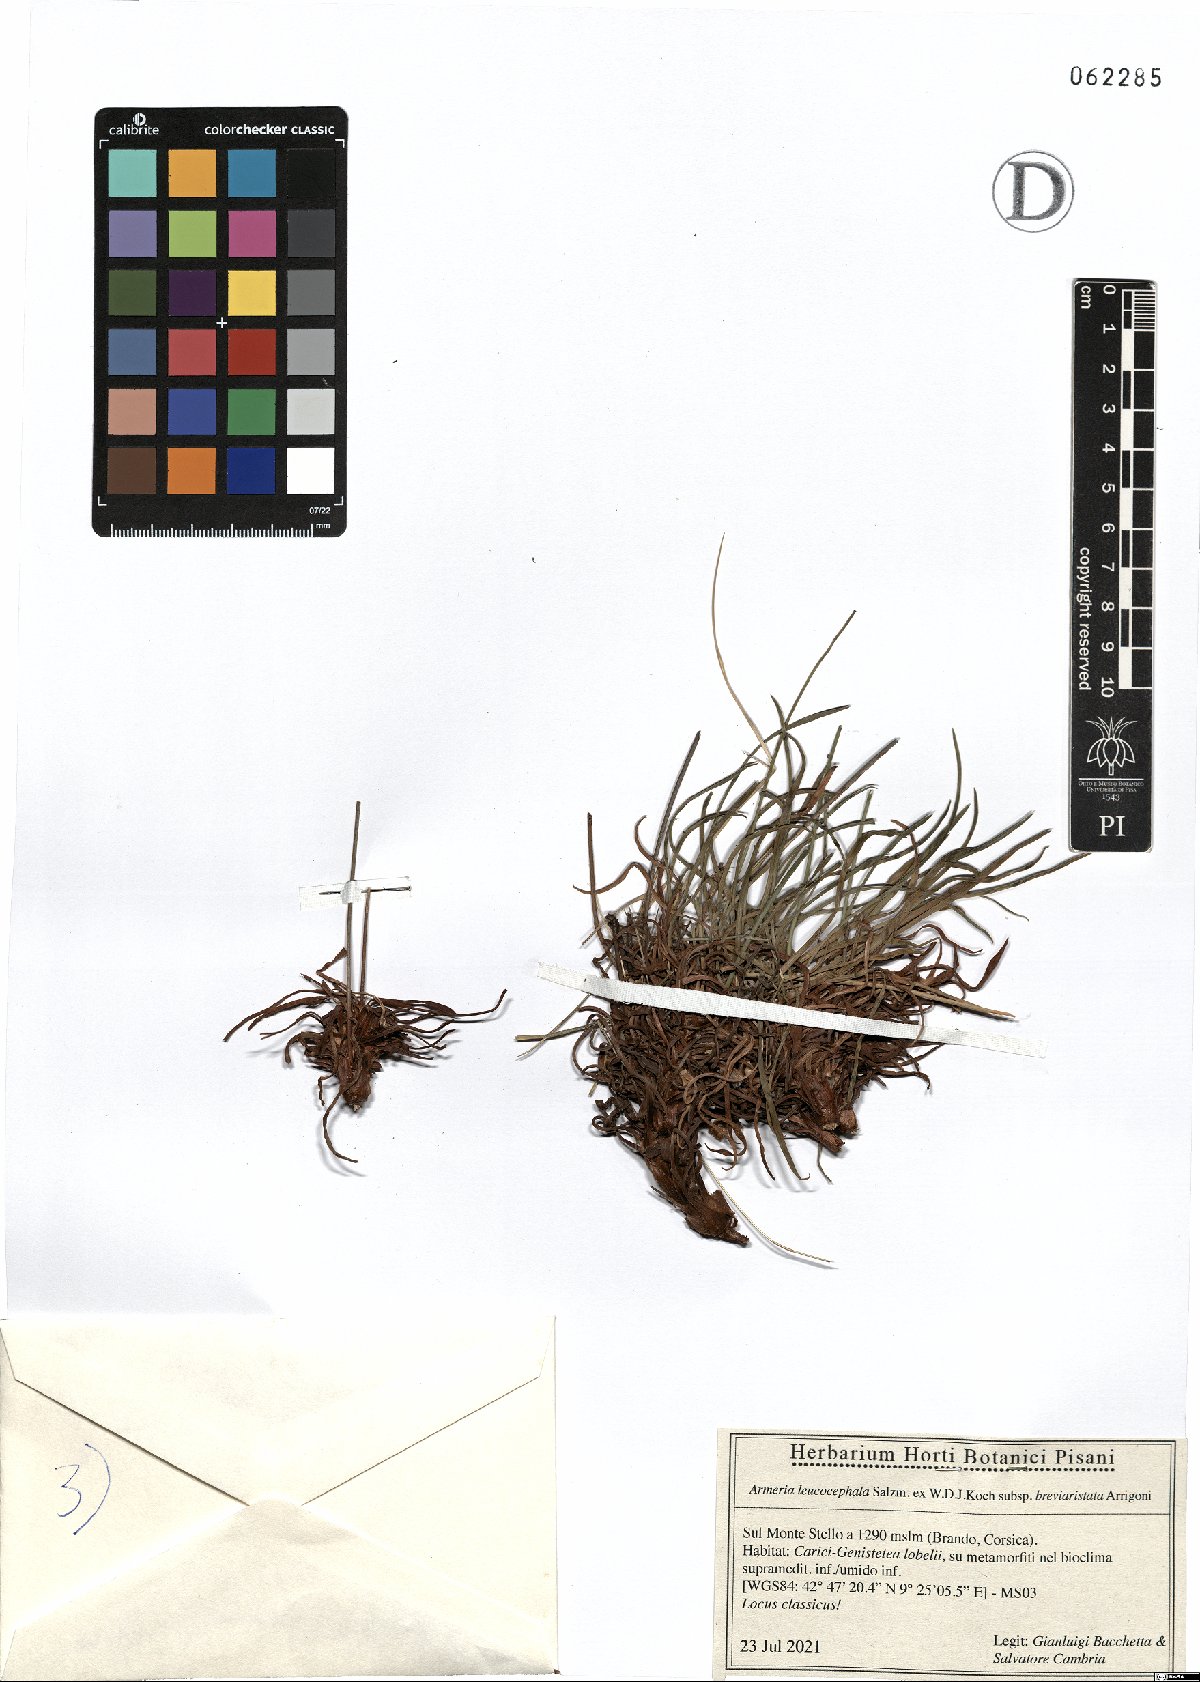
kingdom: Plantae
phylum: Tracheophyta
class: Magnoliopsida
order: Caryophyllales
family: Plumbaginaceae
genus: Armeria
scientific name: Armeria leucocephala
